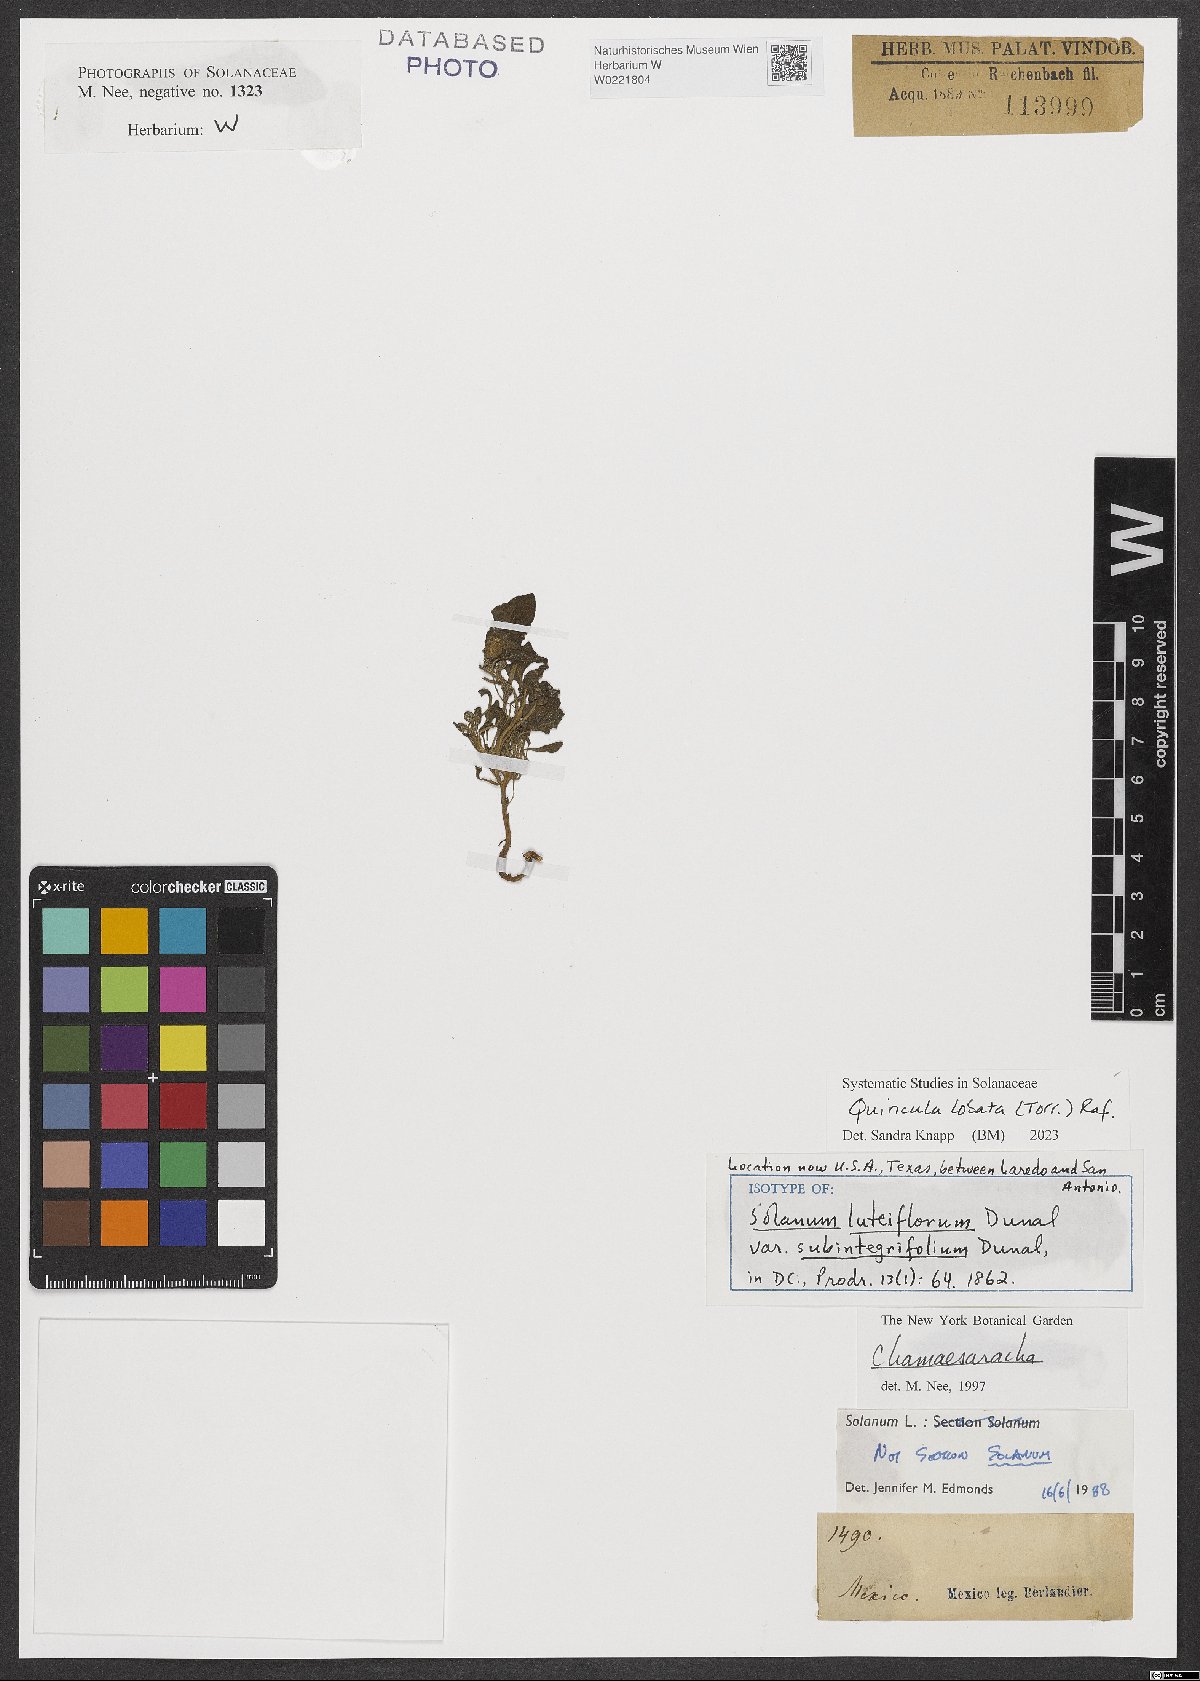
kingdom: Plantae
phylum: Tracheophyta
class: Magnoliopsida
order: Solanales
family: Solanaceae
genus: Quincula
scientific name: Quincula lobata
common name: Purple-ground-cherry
